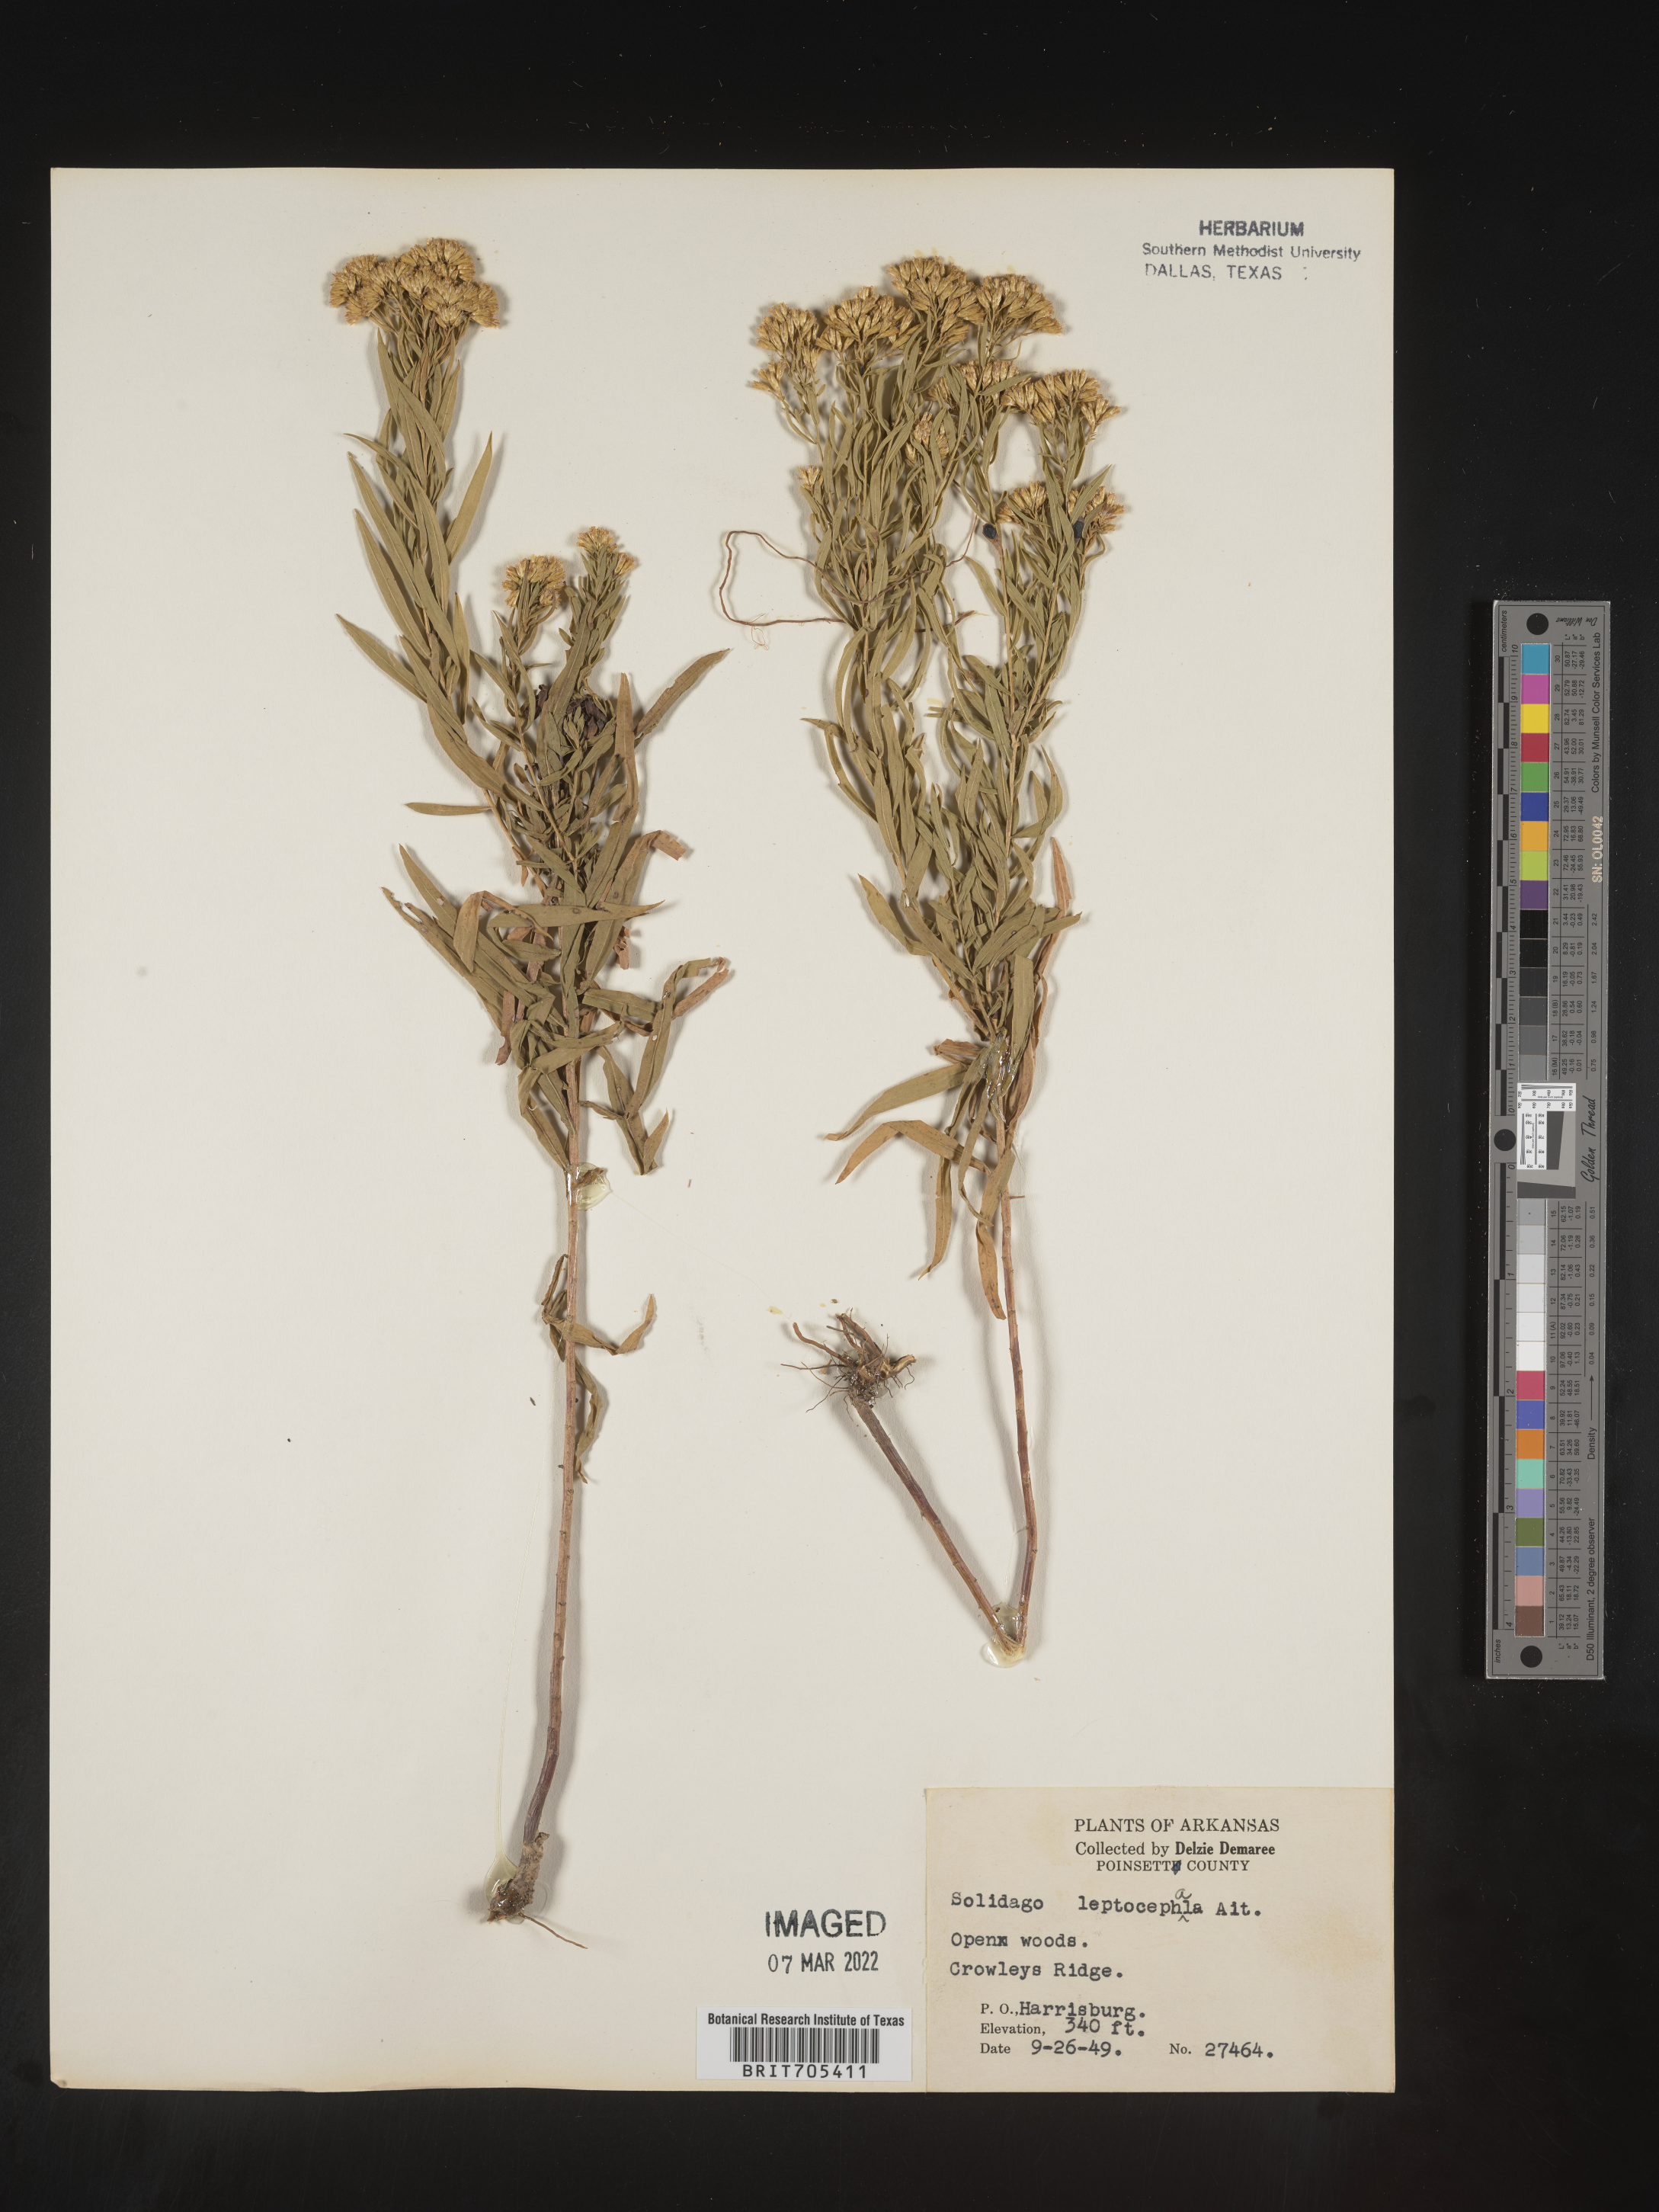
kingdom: Plantae
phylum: Tracheophyta
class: Magnoliopsida
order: Asterales
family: Asteraceae
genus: Euthamia
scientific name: Euthamia leptocephala
